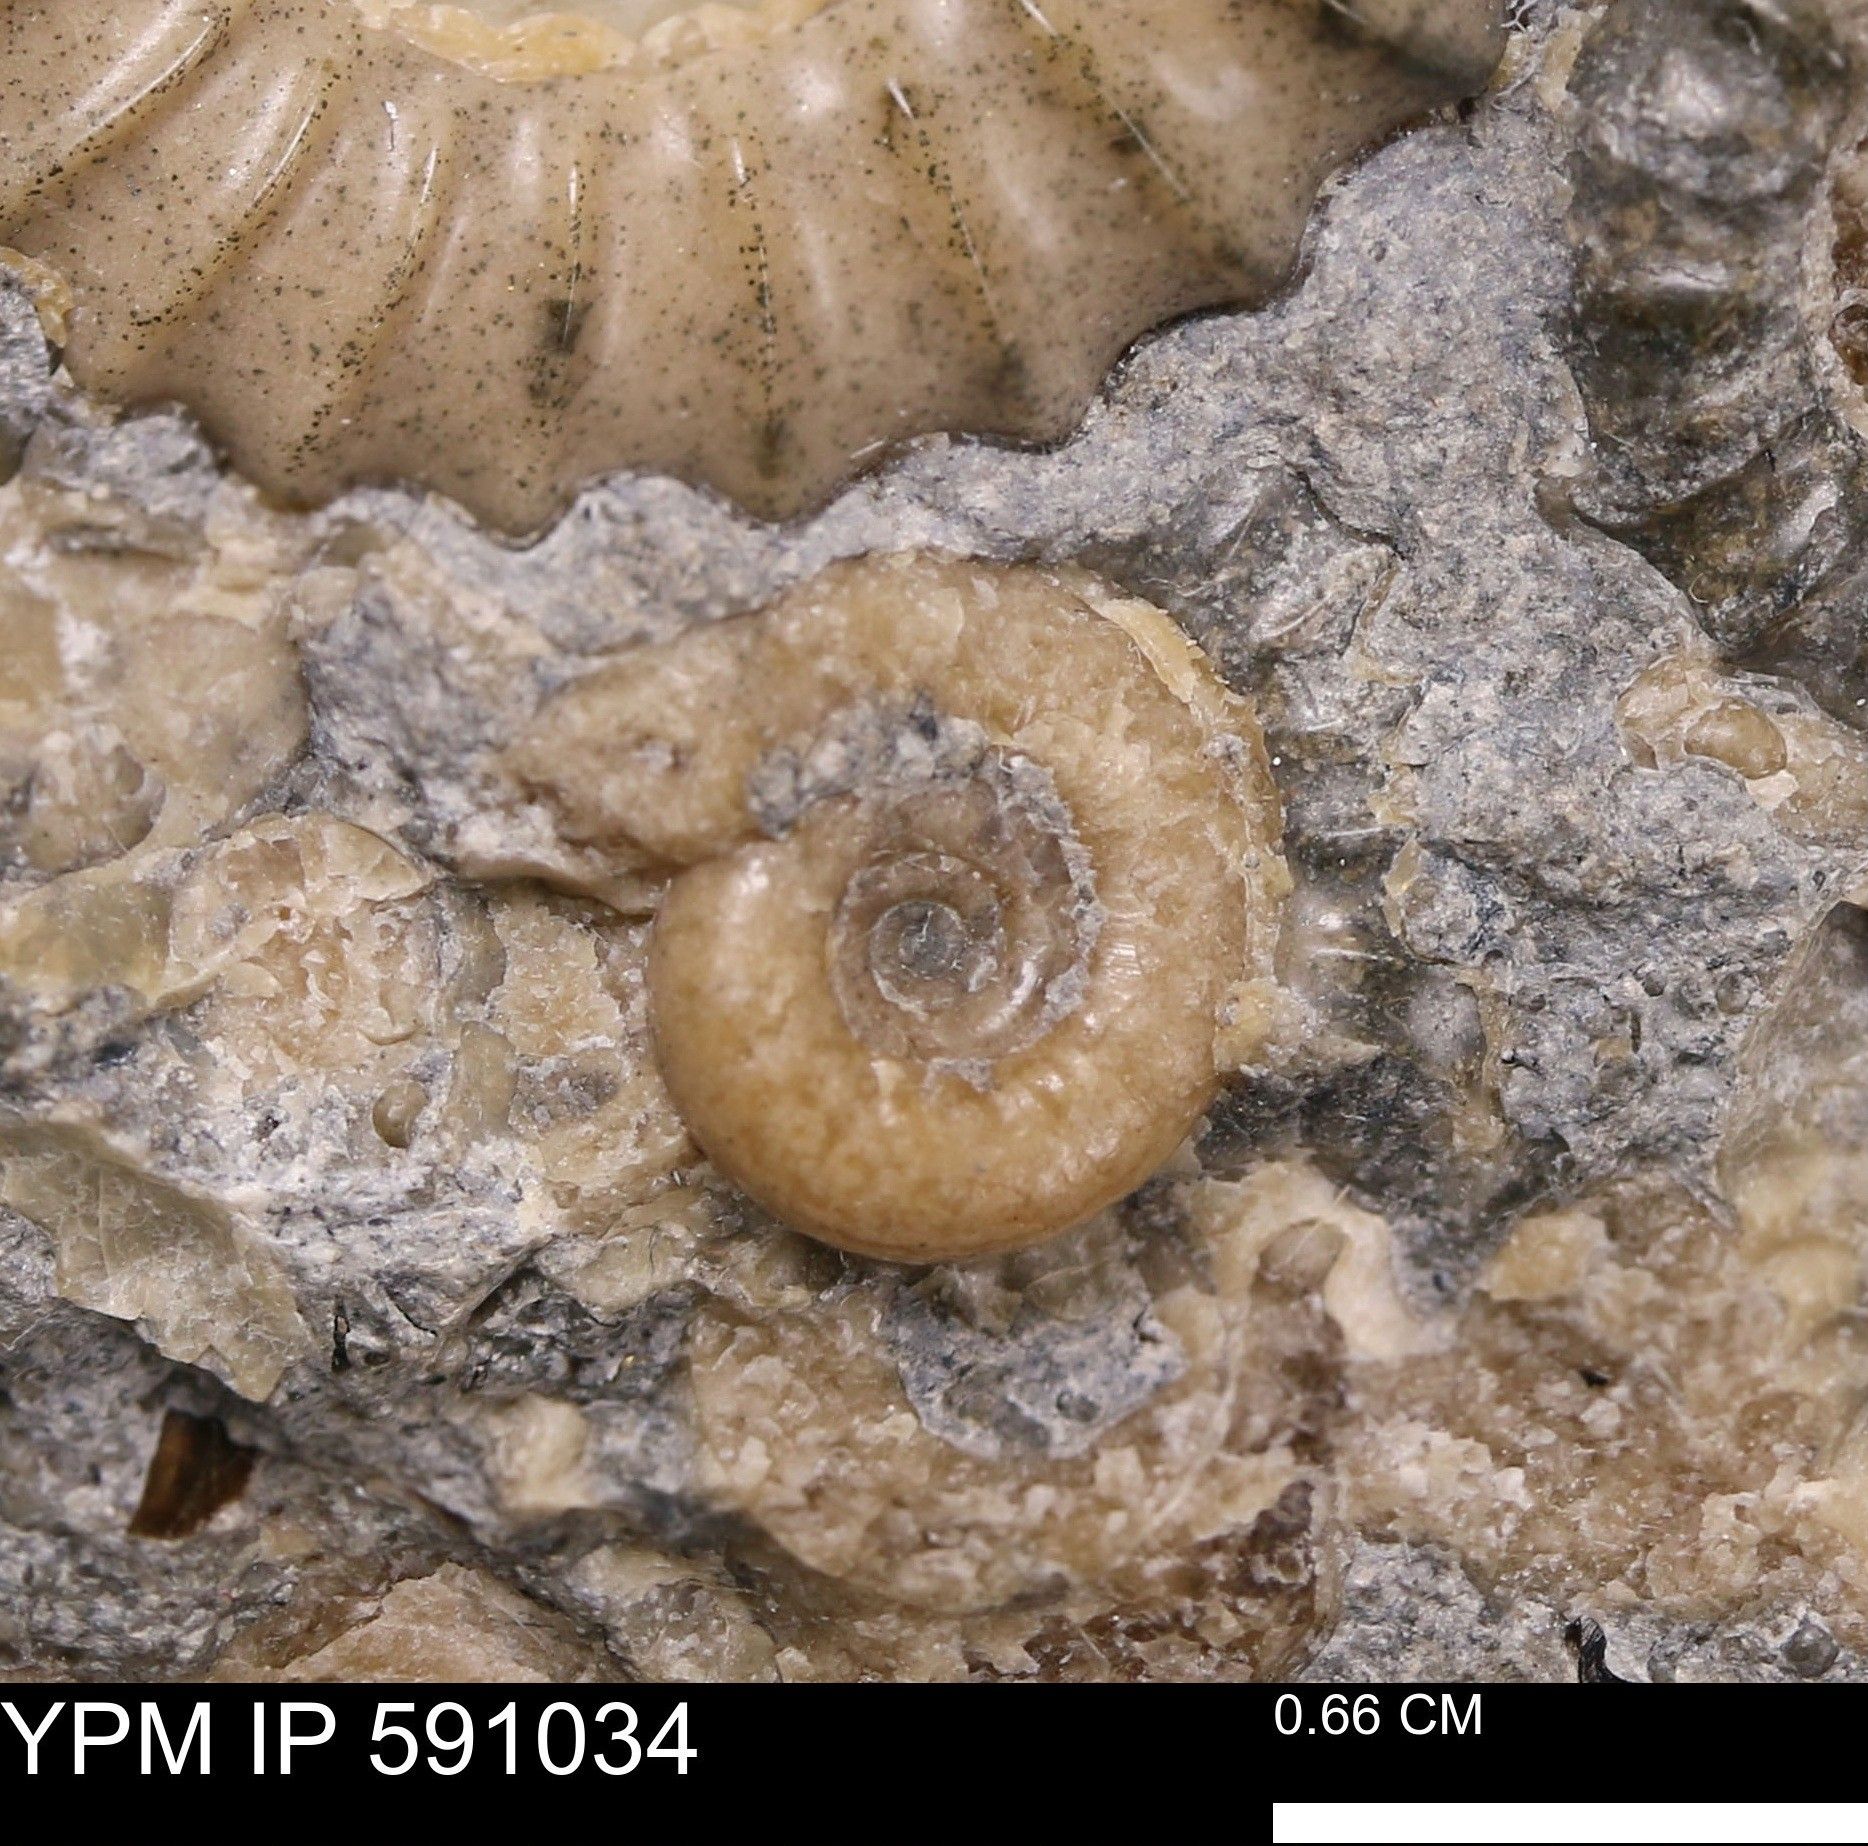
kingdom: Animalia
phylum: Mollusca
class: Cephalopoda
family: Eoderoceratidae
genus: Promicroceras
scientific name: Promicroceras planicosta
